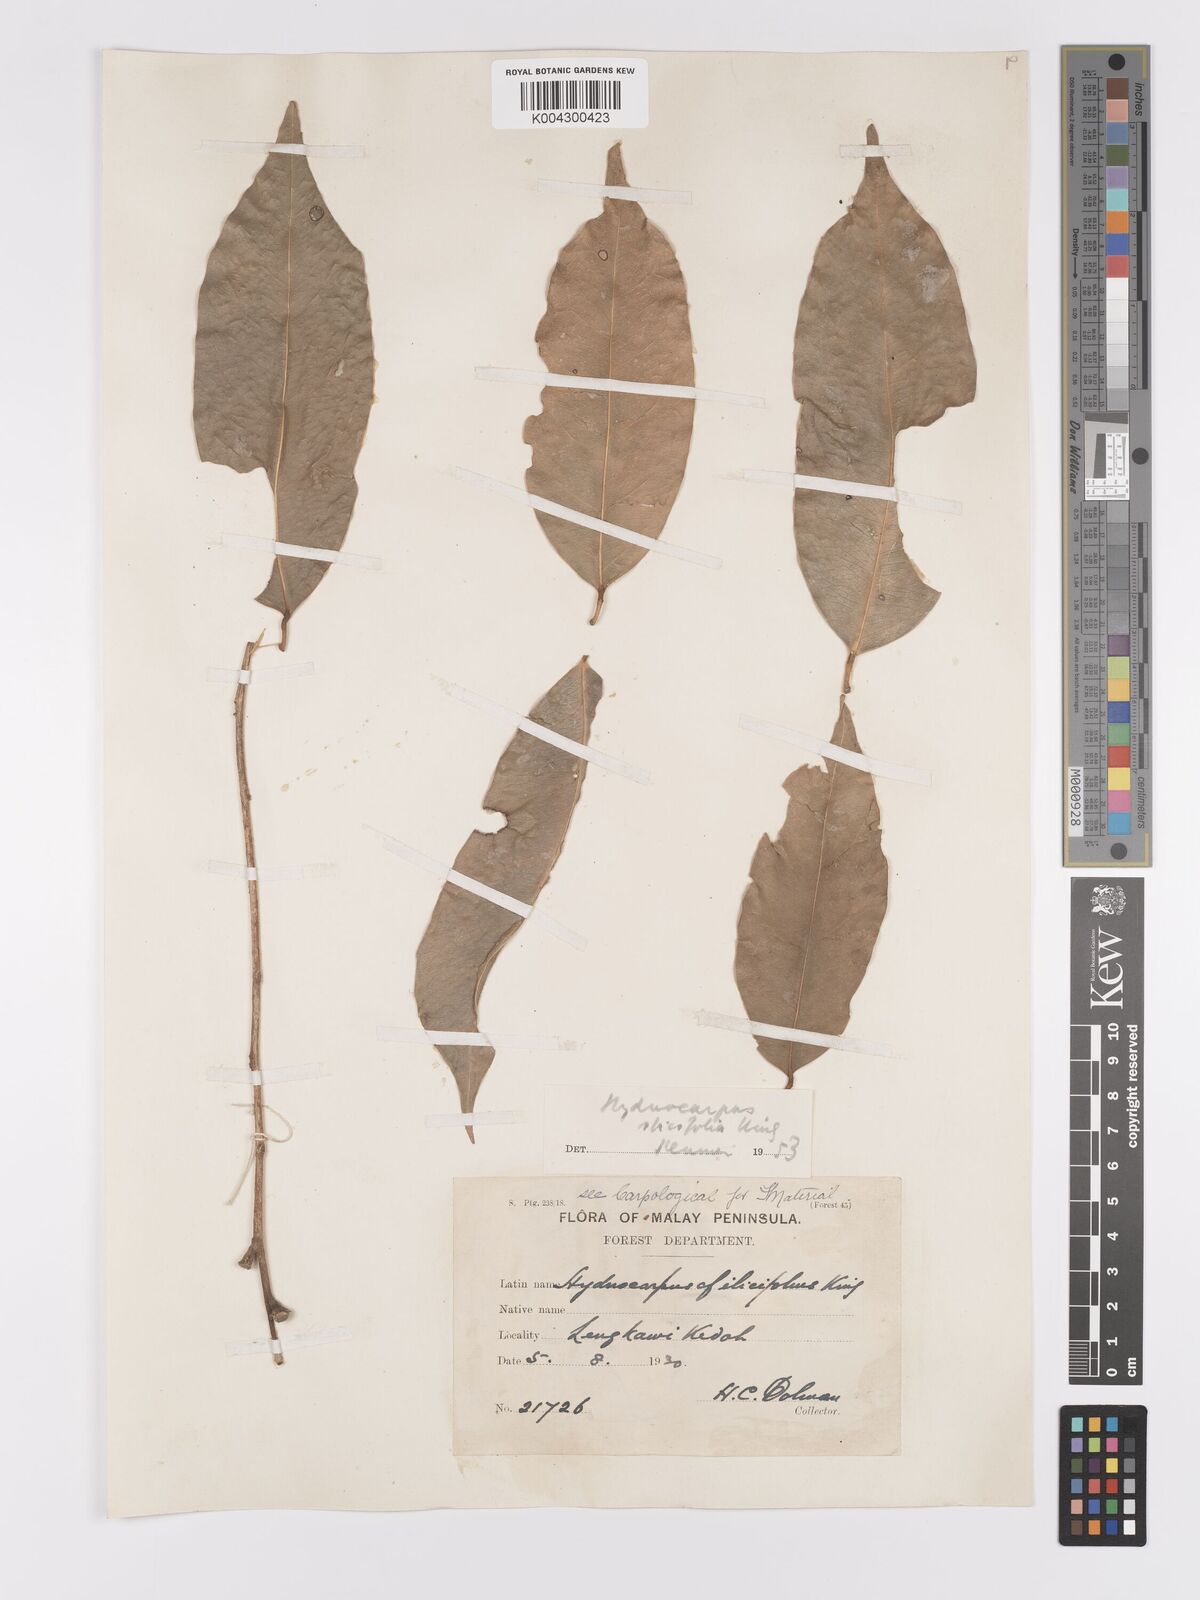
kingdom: Plantae
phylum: Tracheophyta
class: Magnoliopsida
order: Malpighiales
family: Achariaceae
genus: Hydnocarpus
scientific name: Hydnocarpus ilicifolius
